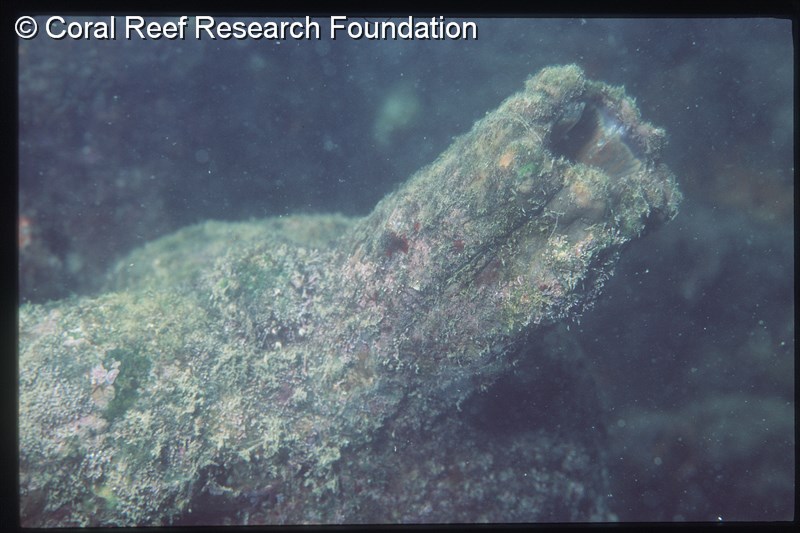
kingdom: Animalia
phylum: Chordata
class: Ascidiacea
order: Stolidobranchia
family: Pyuridae
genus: Pyura
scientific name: Pyura stolonifera
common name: Red bait
